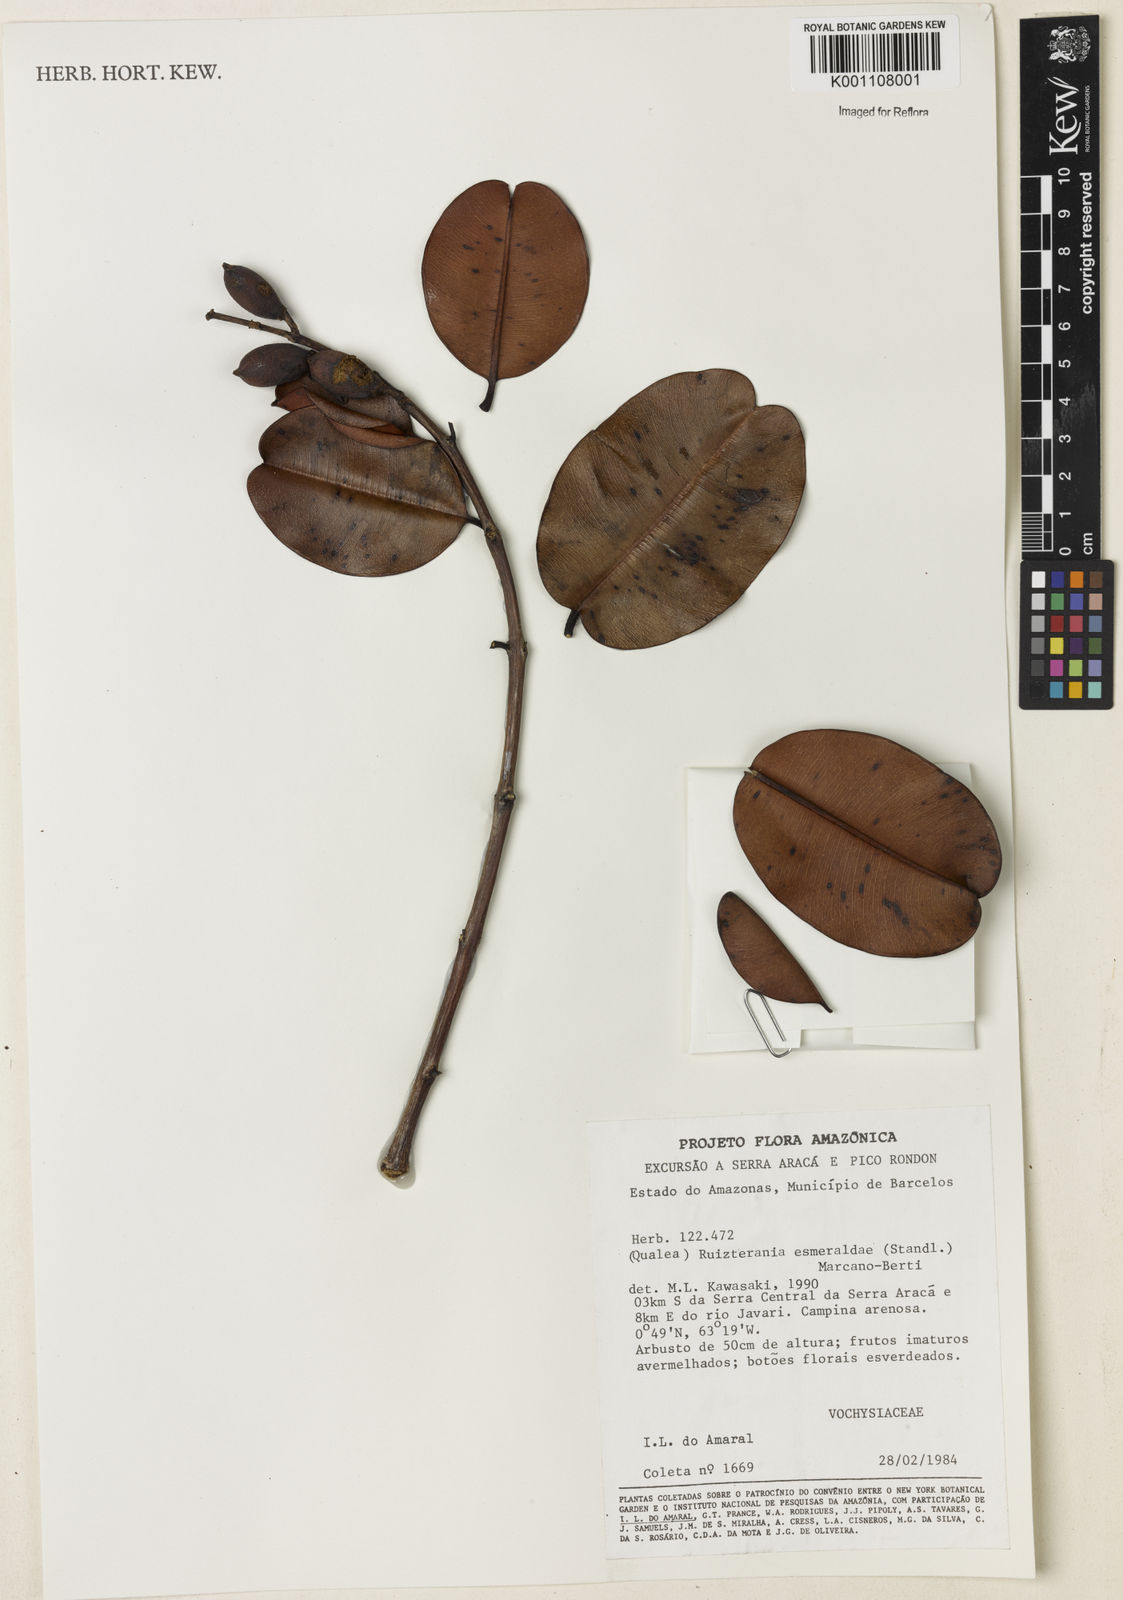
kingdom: Plantae
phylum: Tracheophyta
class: Magnoliopsida
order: Myrtales
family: Vochysiaceae
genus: Ruizterania
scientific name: Ruizterania esmeraldae
